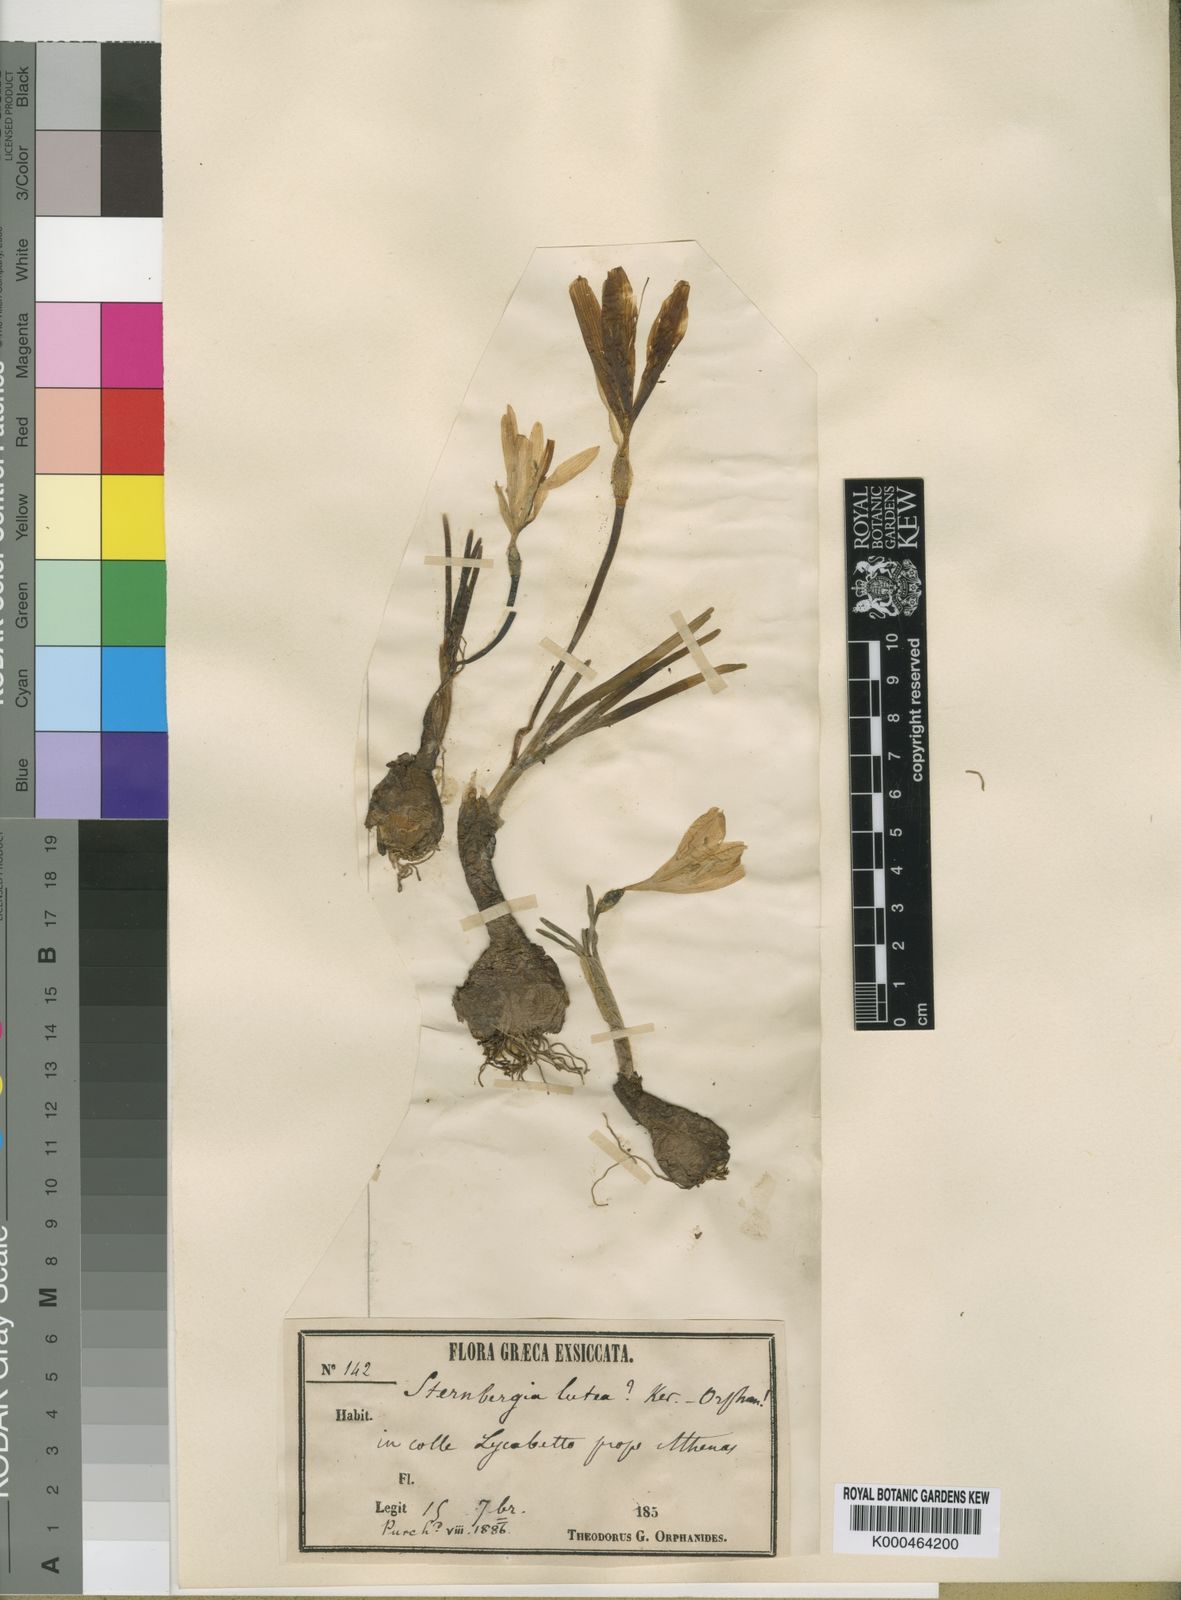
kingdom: Plantae
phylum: Tracheophyta
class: Liliopsida
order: Asparagales
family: Amaryllidaceae
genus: Sternbergia
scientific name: Sternbergia
